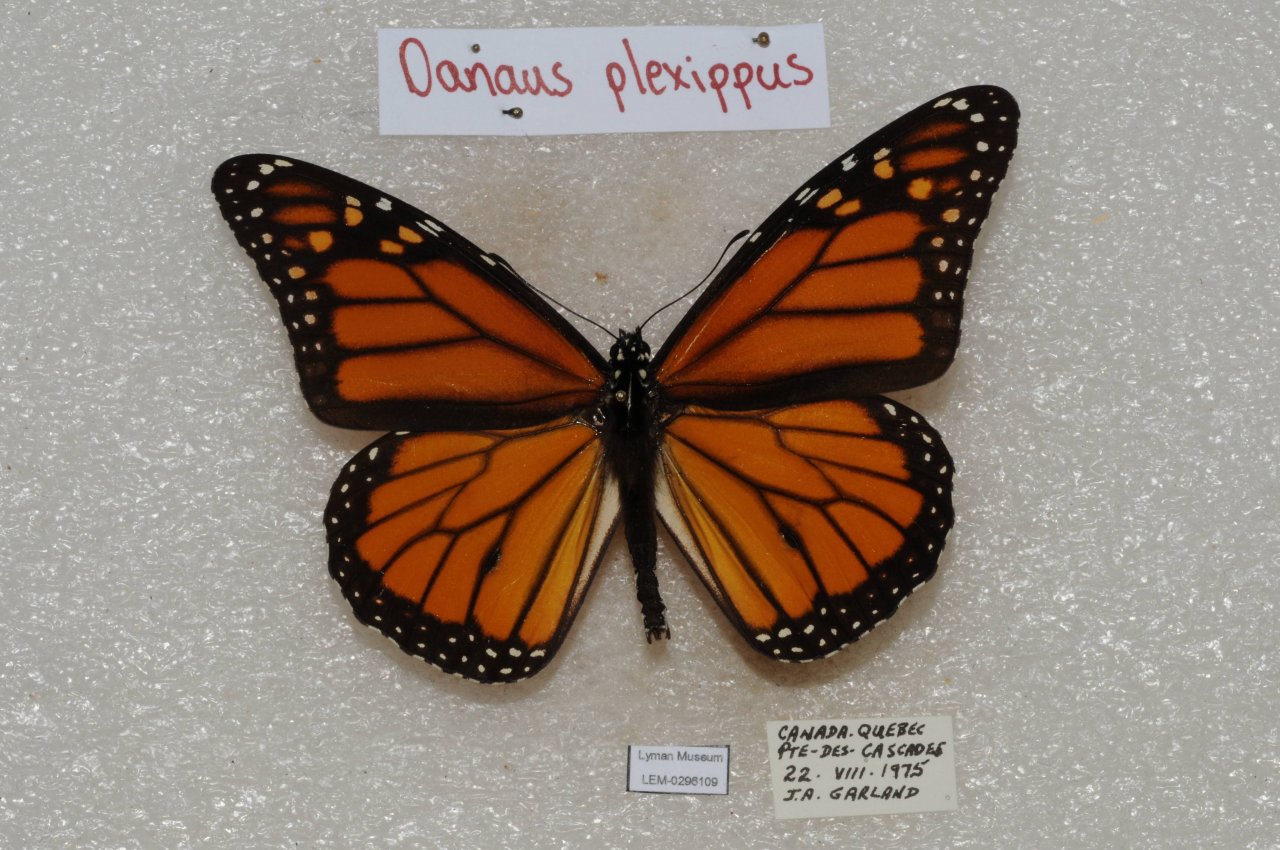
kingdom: Animalia
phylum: Arthropoda
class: Insecta
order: Lepidoptera
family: Nymphalidae
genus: Danaus
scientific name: Danaus plexippus
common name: Monarch
